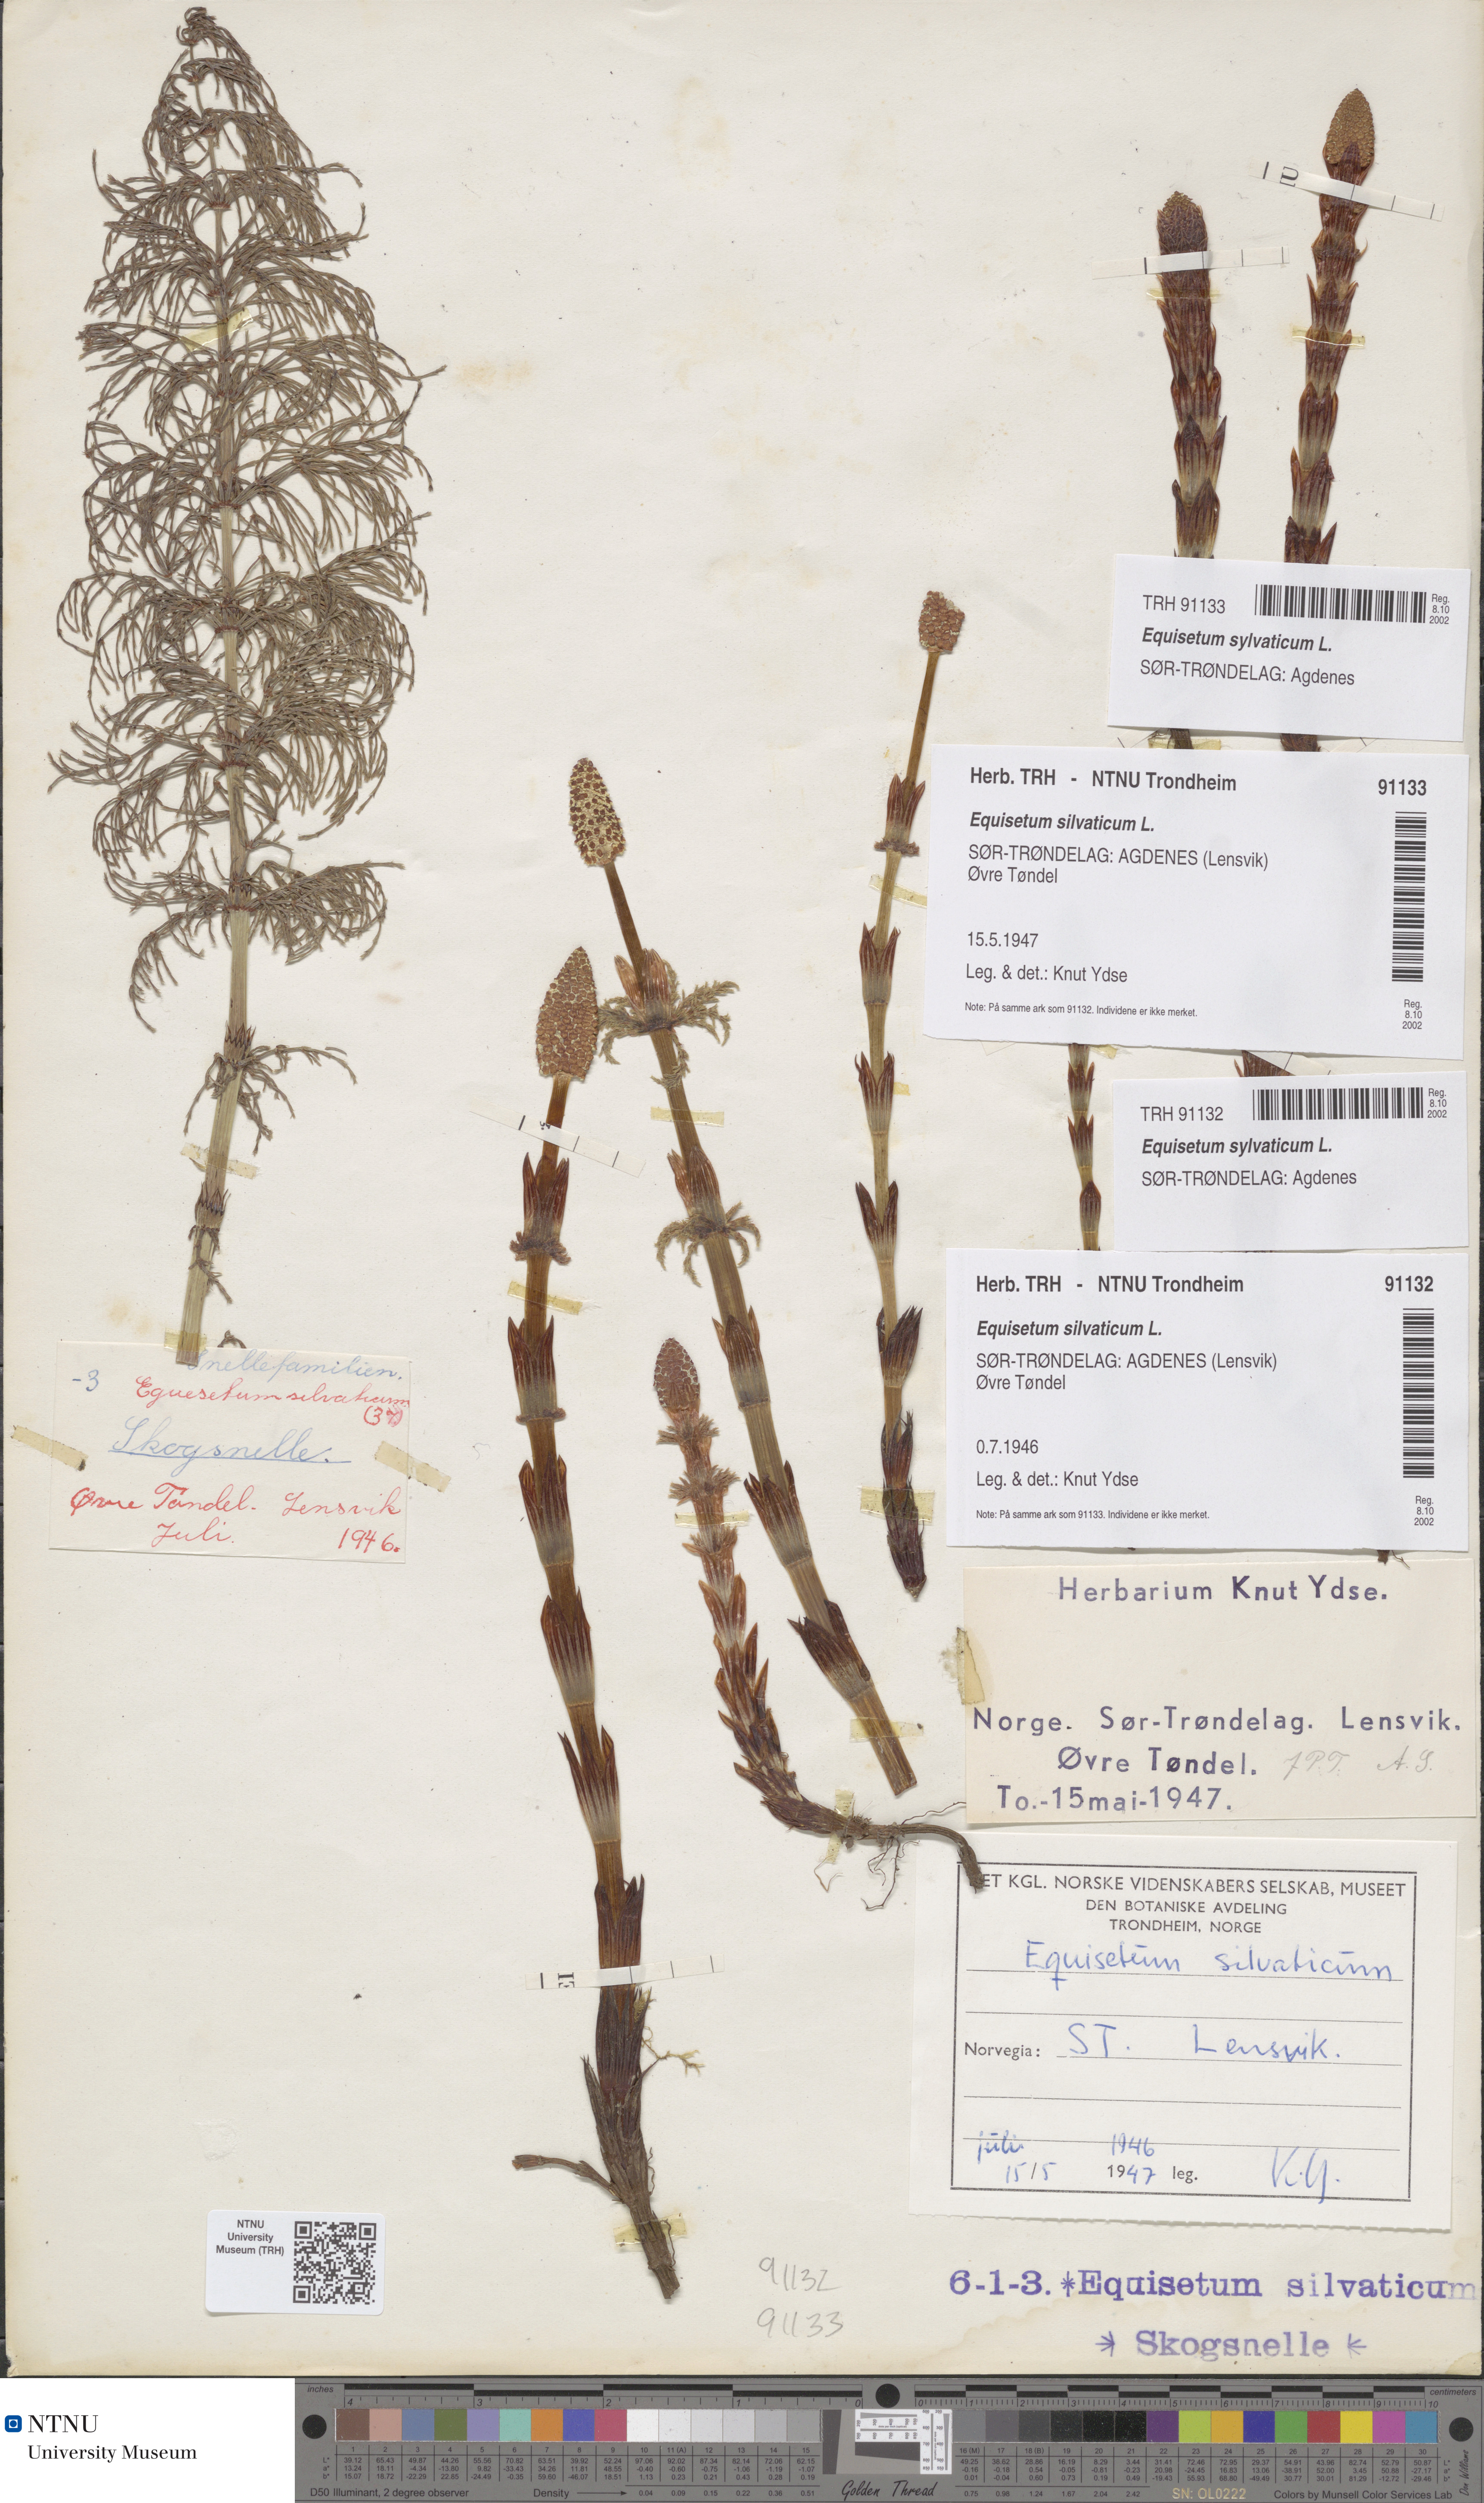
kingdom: Plantae
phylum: Tracheophyta
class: Polypodiopsida
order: Equisetales
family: Equisetaceae
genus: Equisetum
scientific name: Equisetum sylvaticum
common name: Wood horsetail
